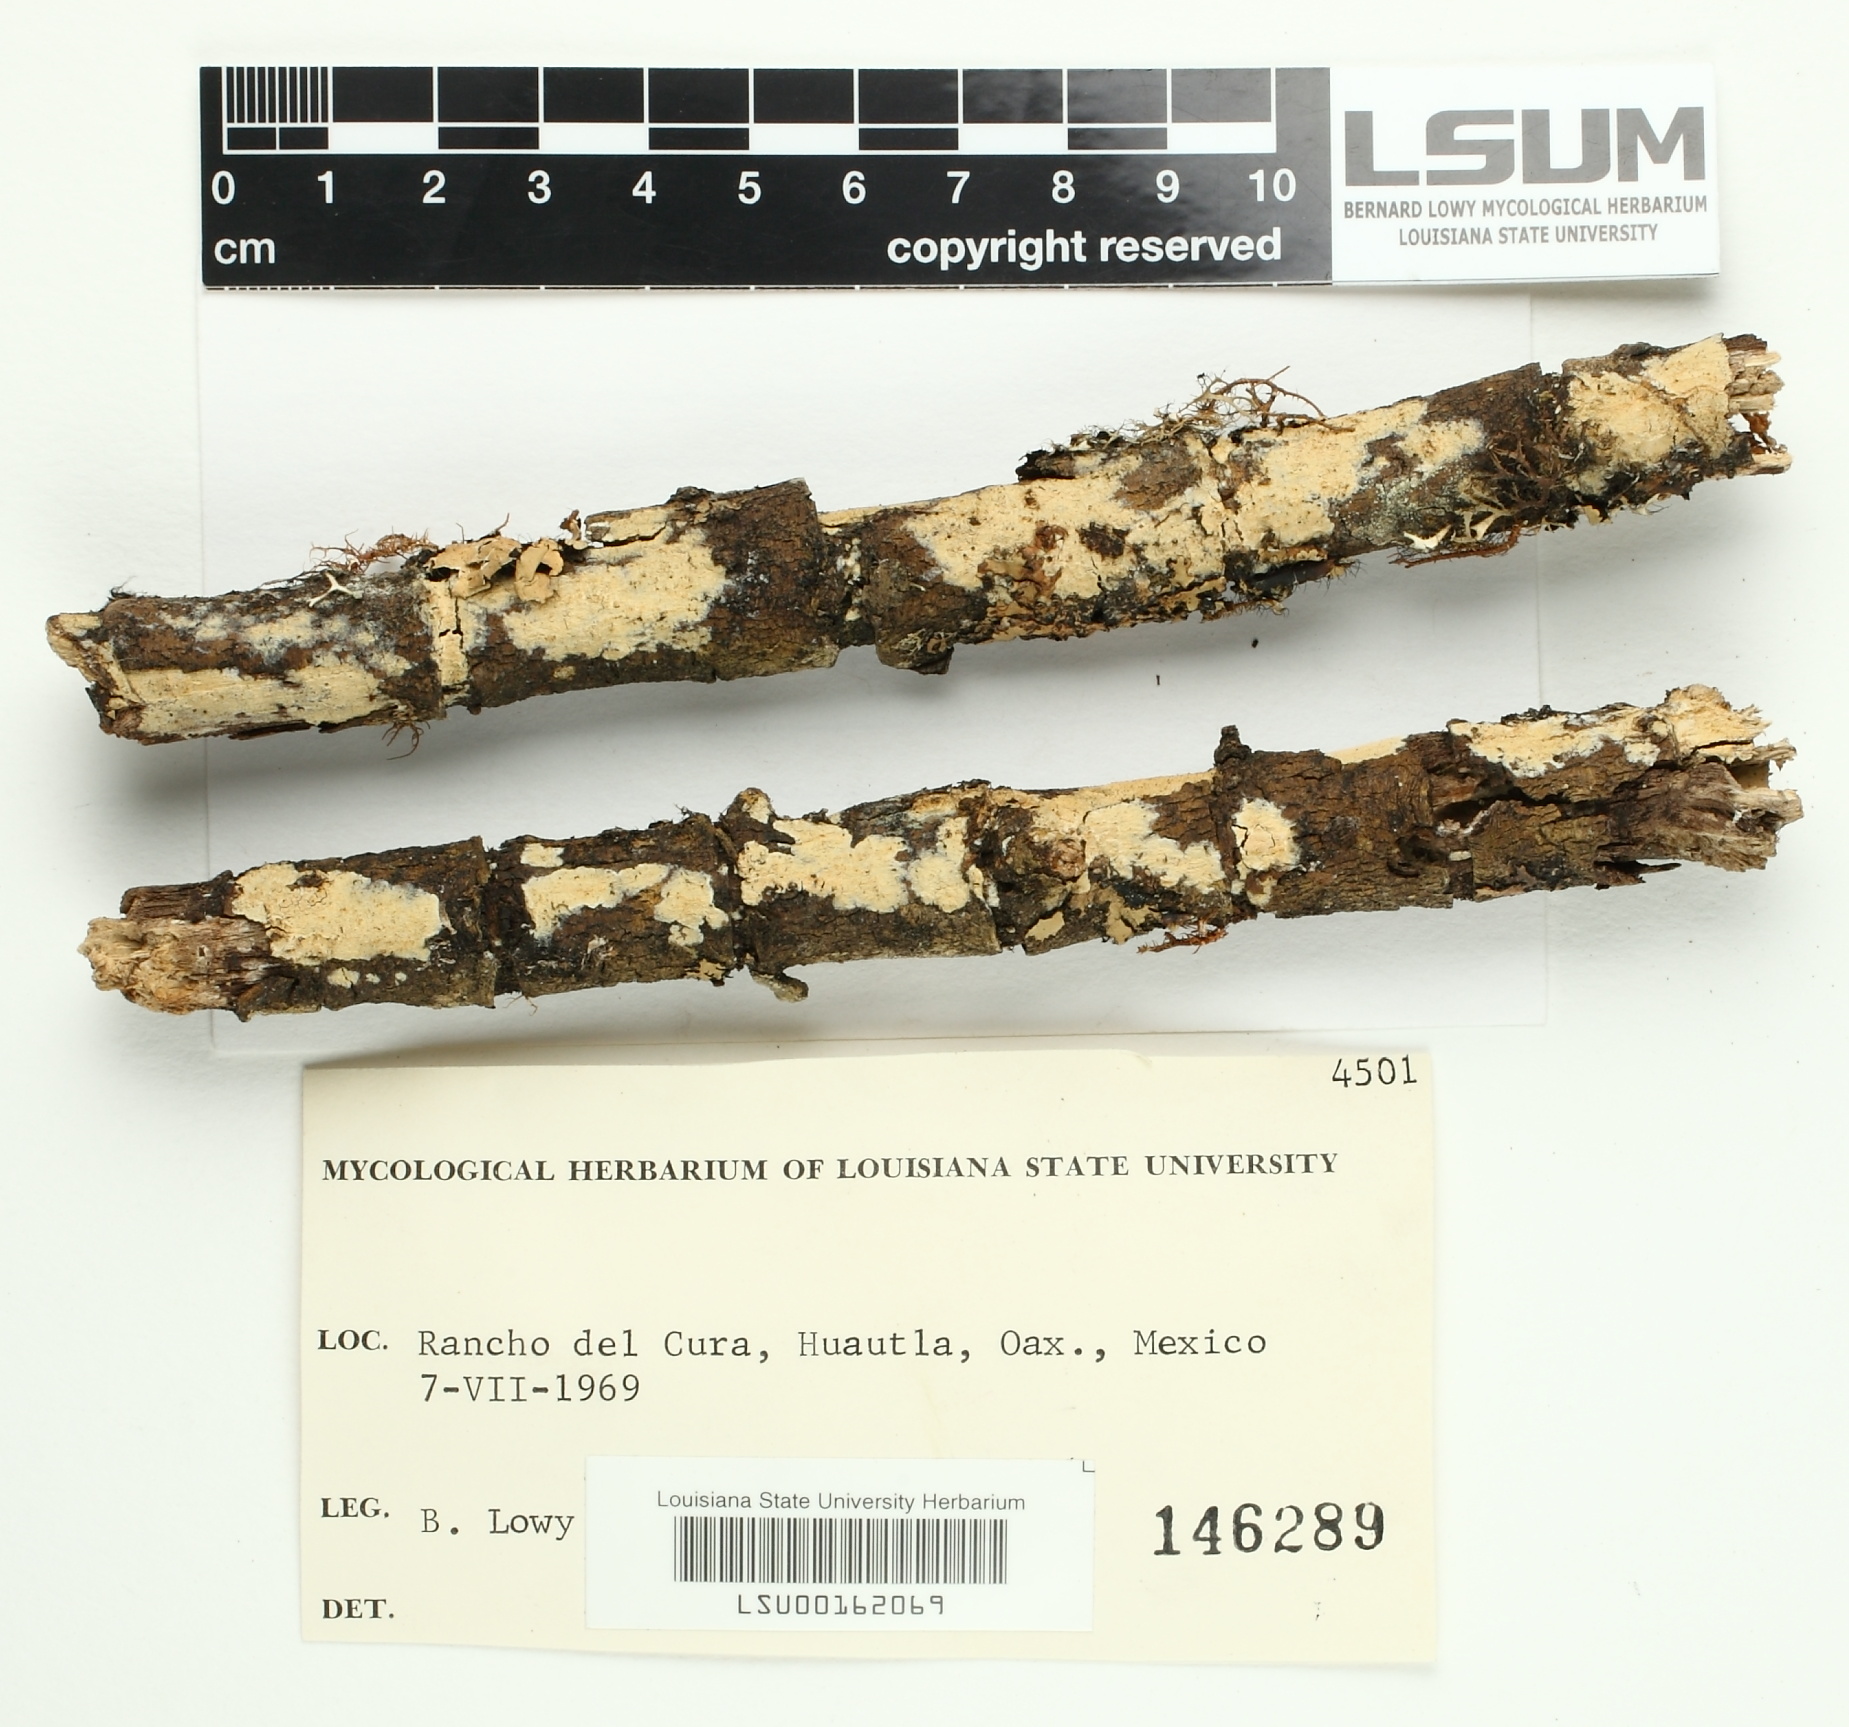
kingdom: Fungi
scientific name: Fungi
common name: Fungi
